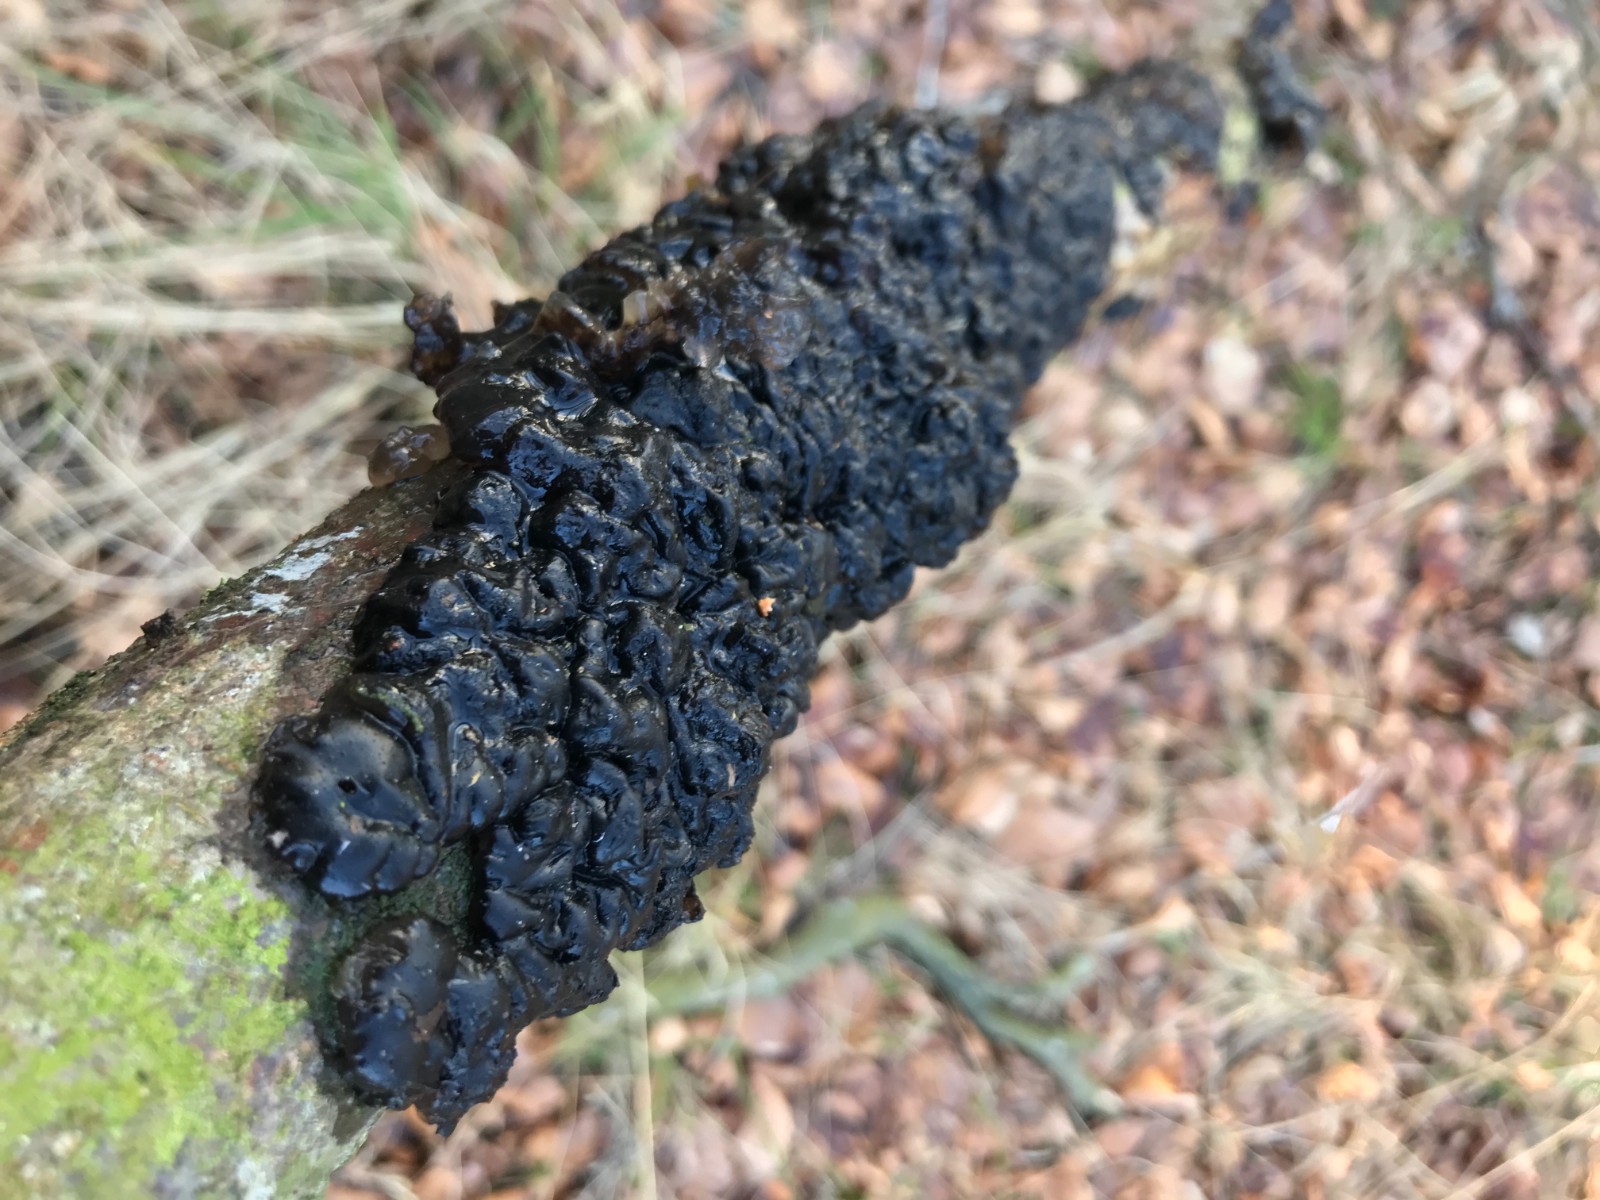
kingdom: Fungi
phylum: Basidiomycota
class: Agaricomycetes
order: Auriculariales
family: Auriculariaceae
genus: Exidia
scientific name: Exidia nigricans
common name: almindelig bævretop
